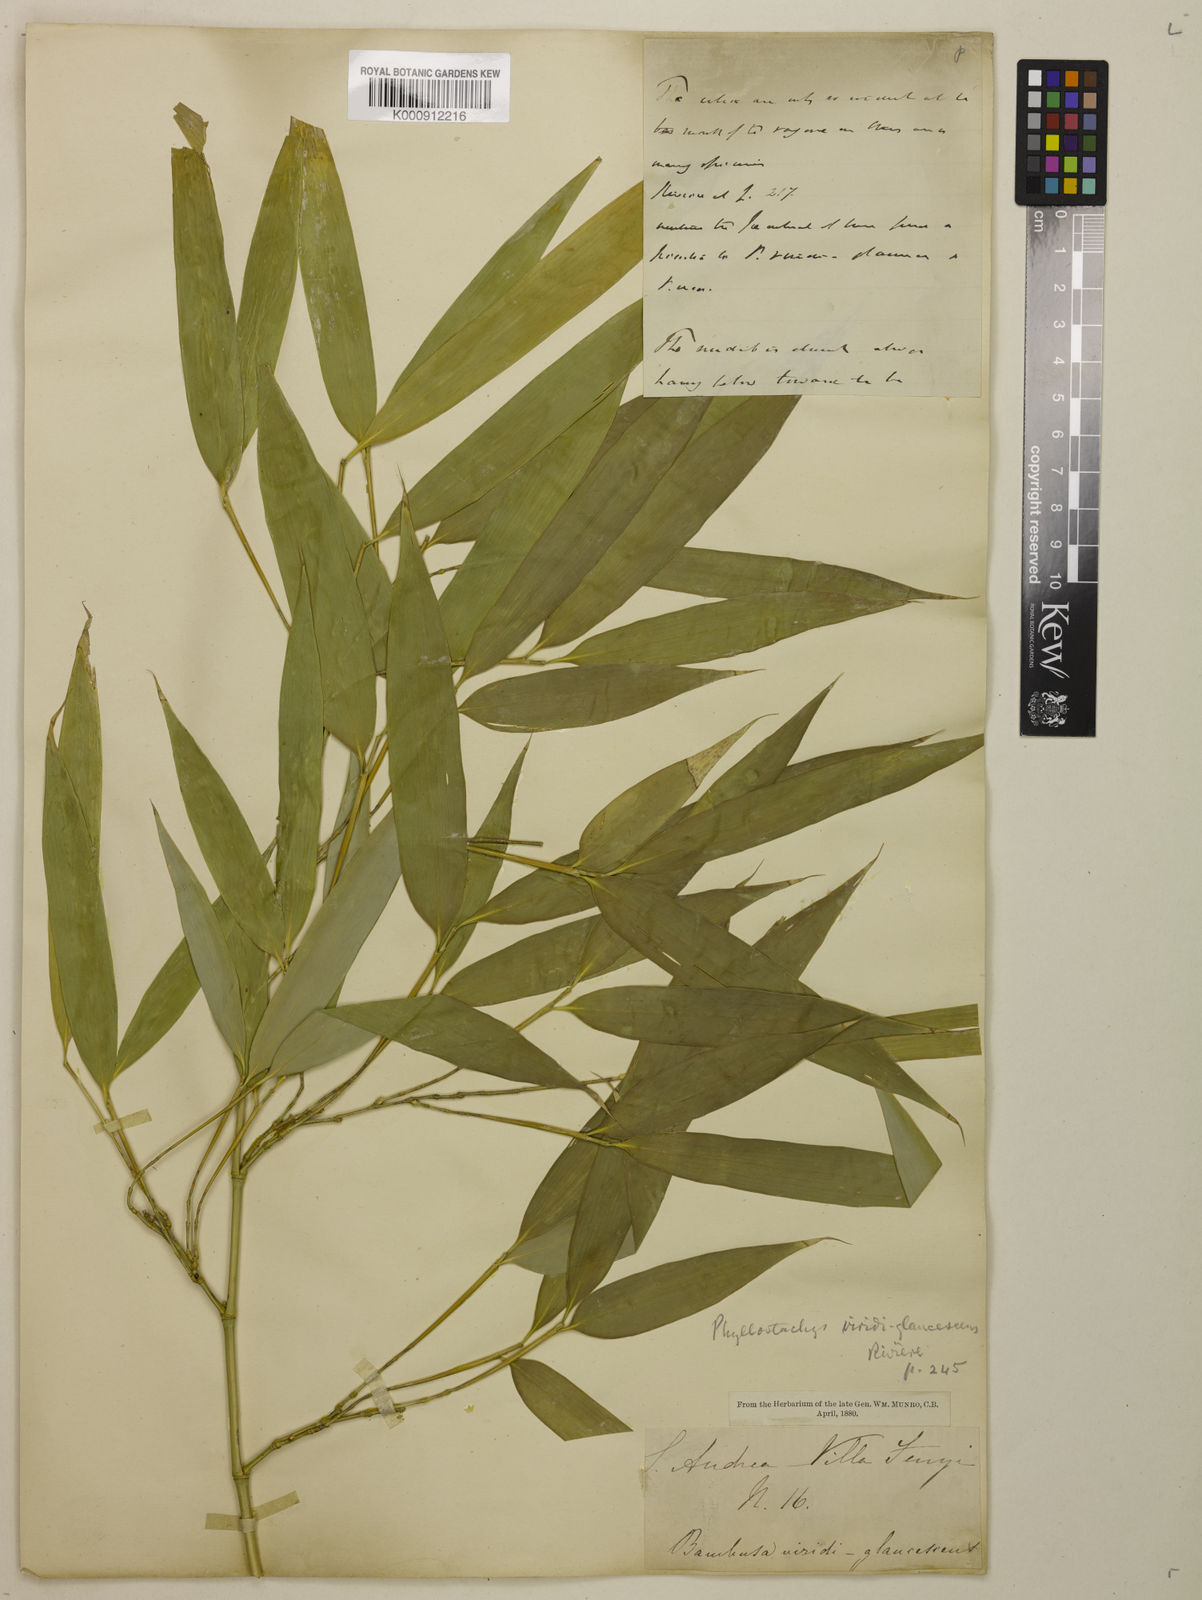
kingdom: Plantae
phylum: Tracheophyta
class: Liliopsida
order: Poales
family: Poaceae
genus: Phyllostachys
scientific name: Phyllostachys
